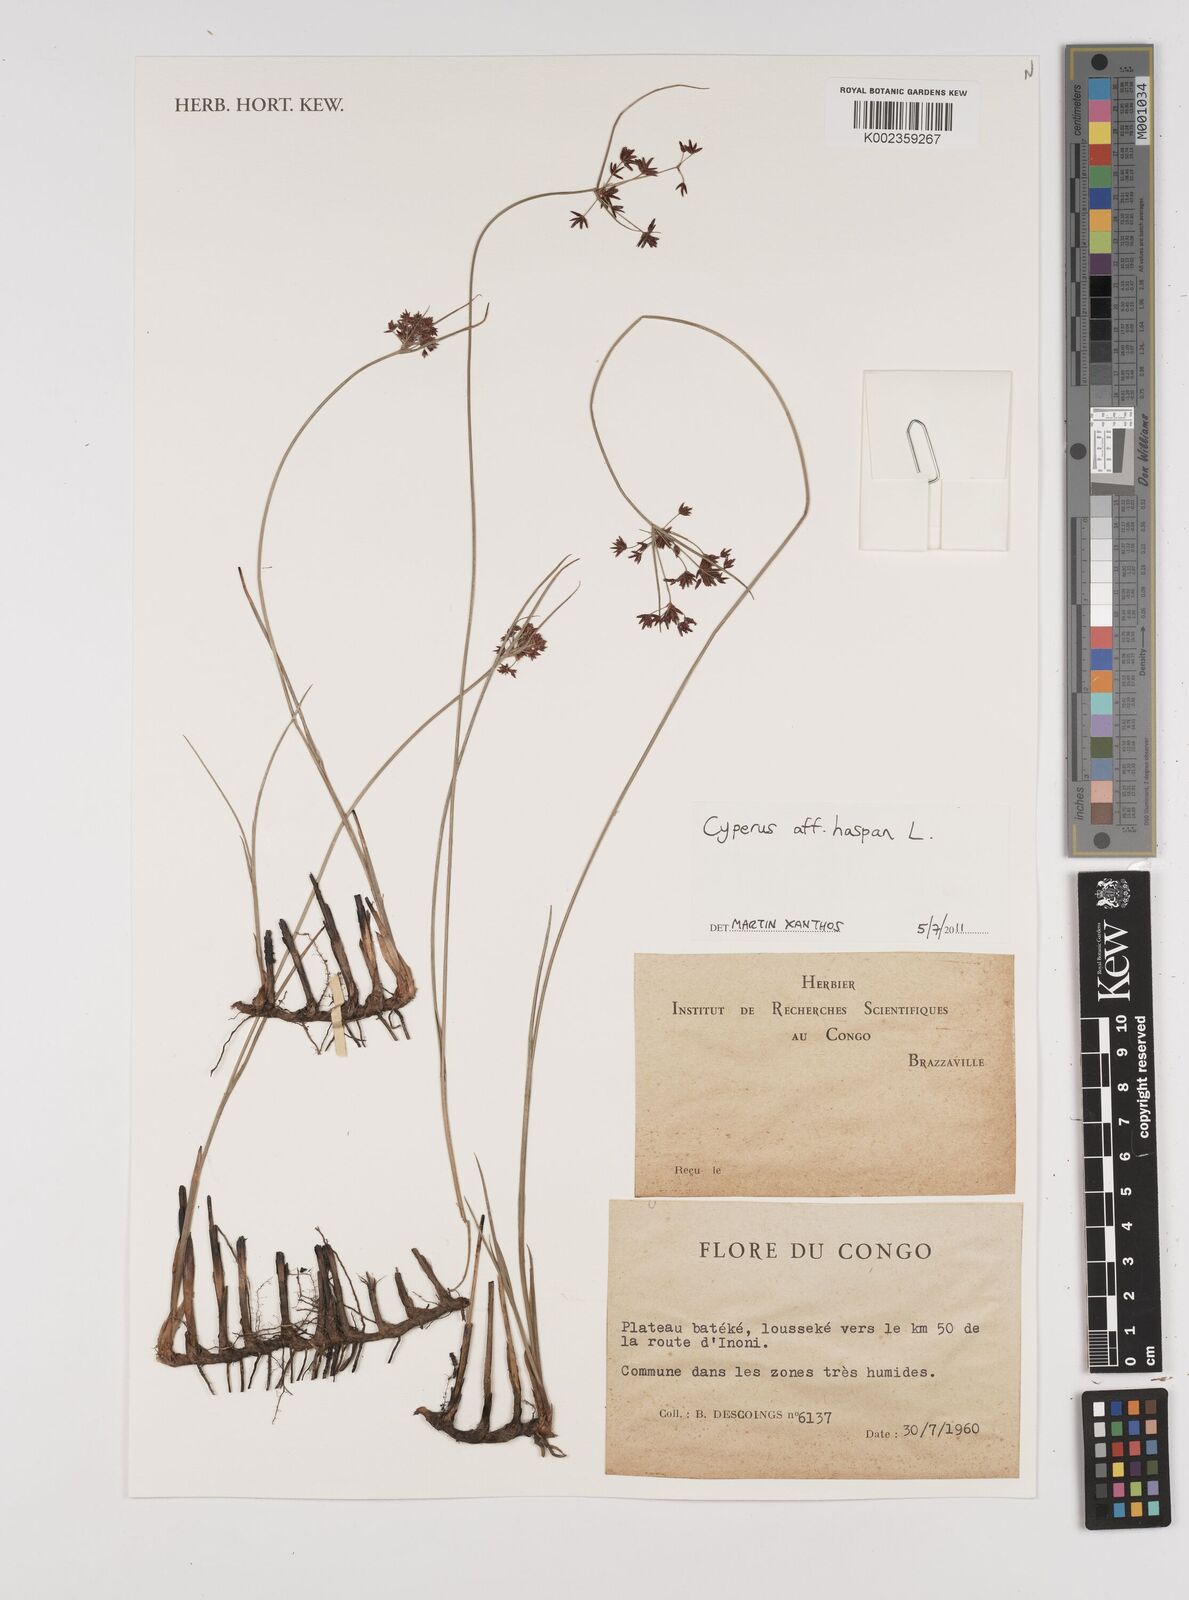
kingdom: Plantae
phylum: Tracheophyta
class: Liliopsida
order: Poales
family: Cyperaceae
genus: Cyperus
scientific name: Cyperus haspan
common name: Haspan flatsedge
